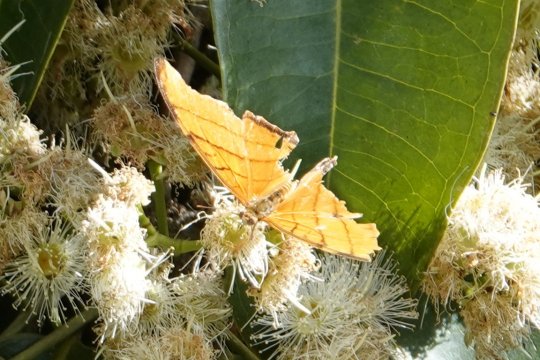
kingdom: Animalia
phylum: Arthropoda
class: Insecta
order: Lepidoptera
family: Nymphalidae
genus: Marpesia
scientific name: Marpesia berania
